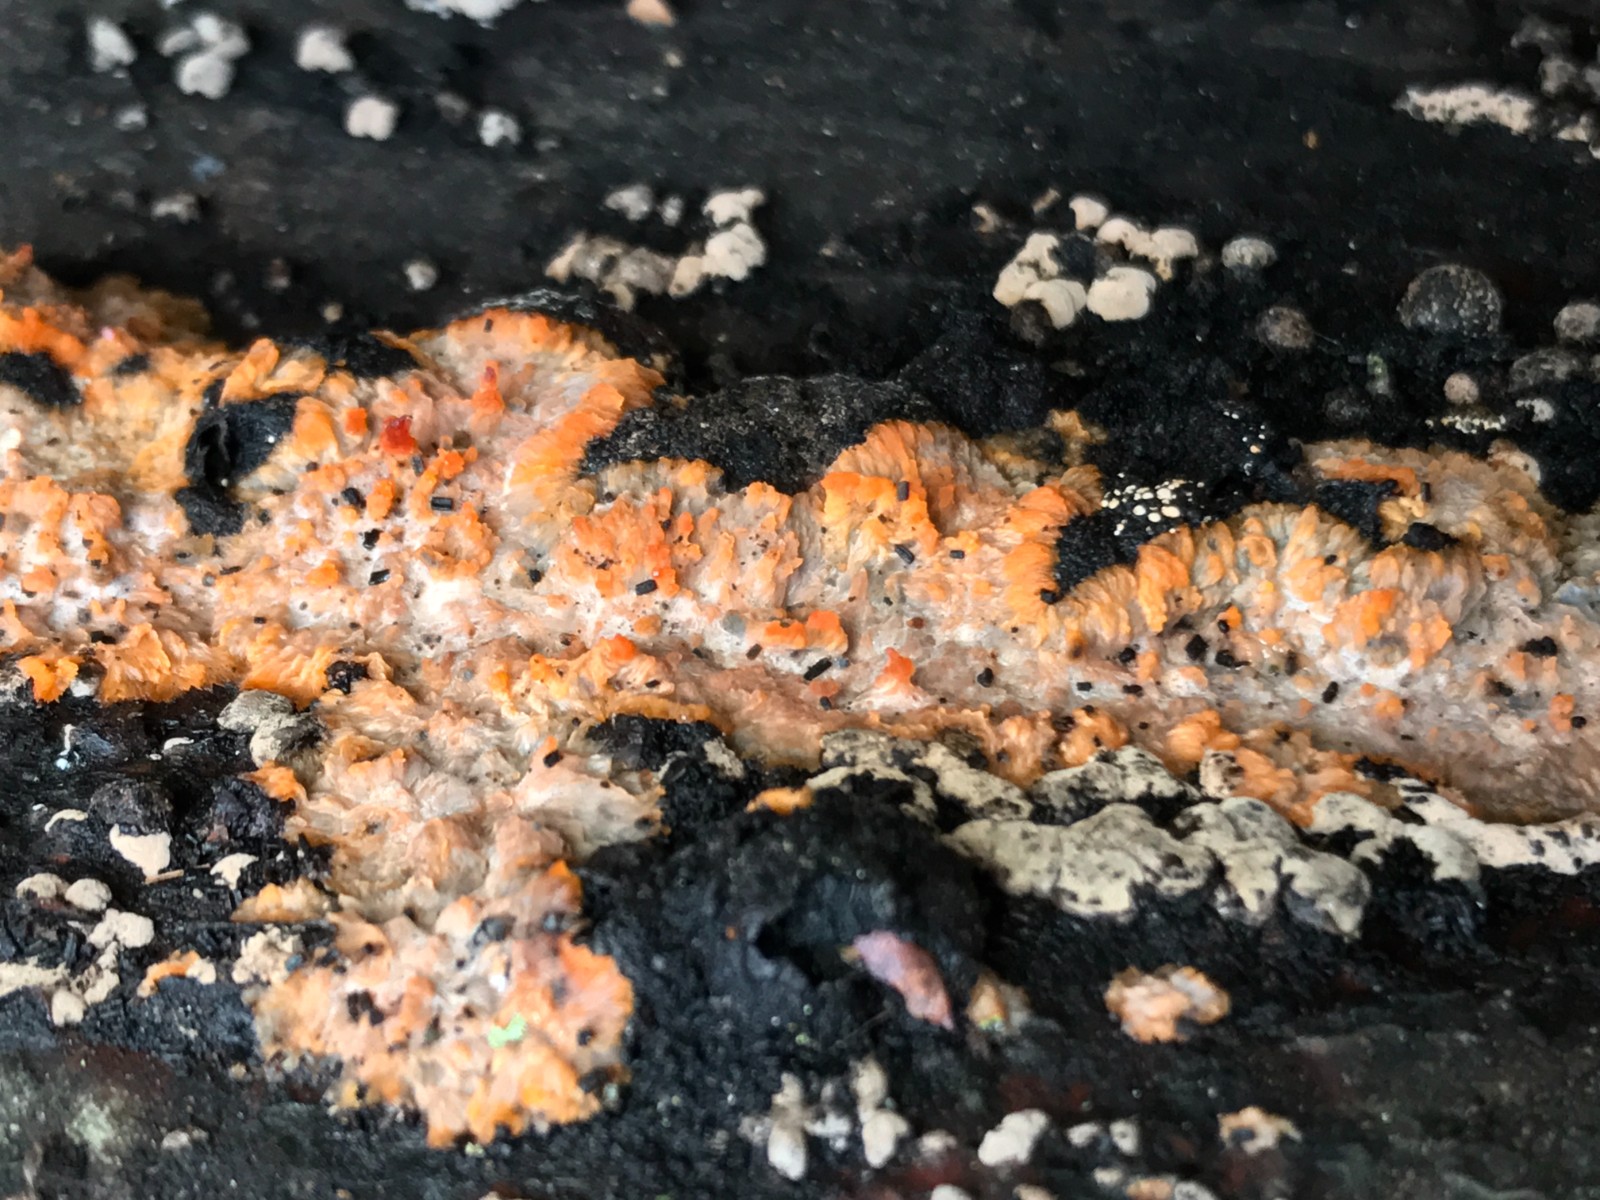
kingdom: Fungi
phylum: Basidiomycota
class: Agaricomycetes
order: Polyporales
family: Meruliaceae
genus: Phlebia
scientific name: Phlebia radiata
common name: stråle-åresvamp
